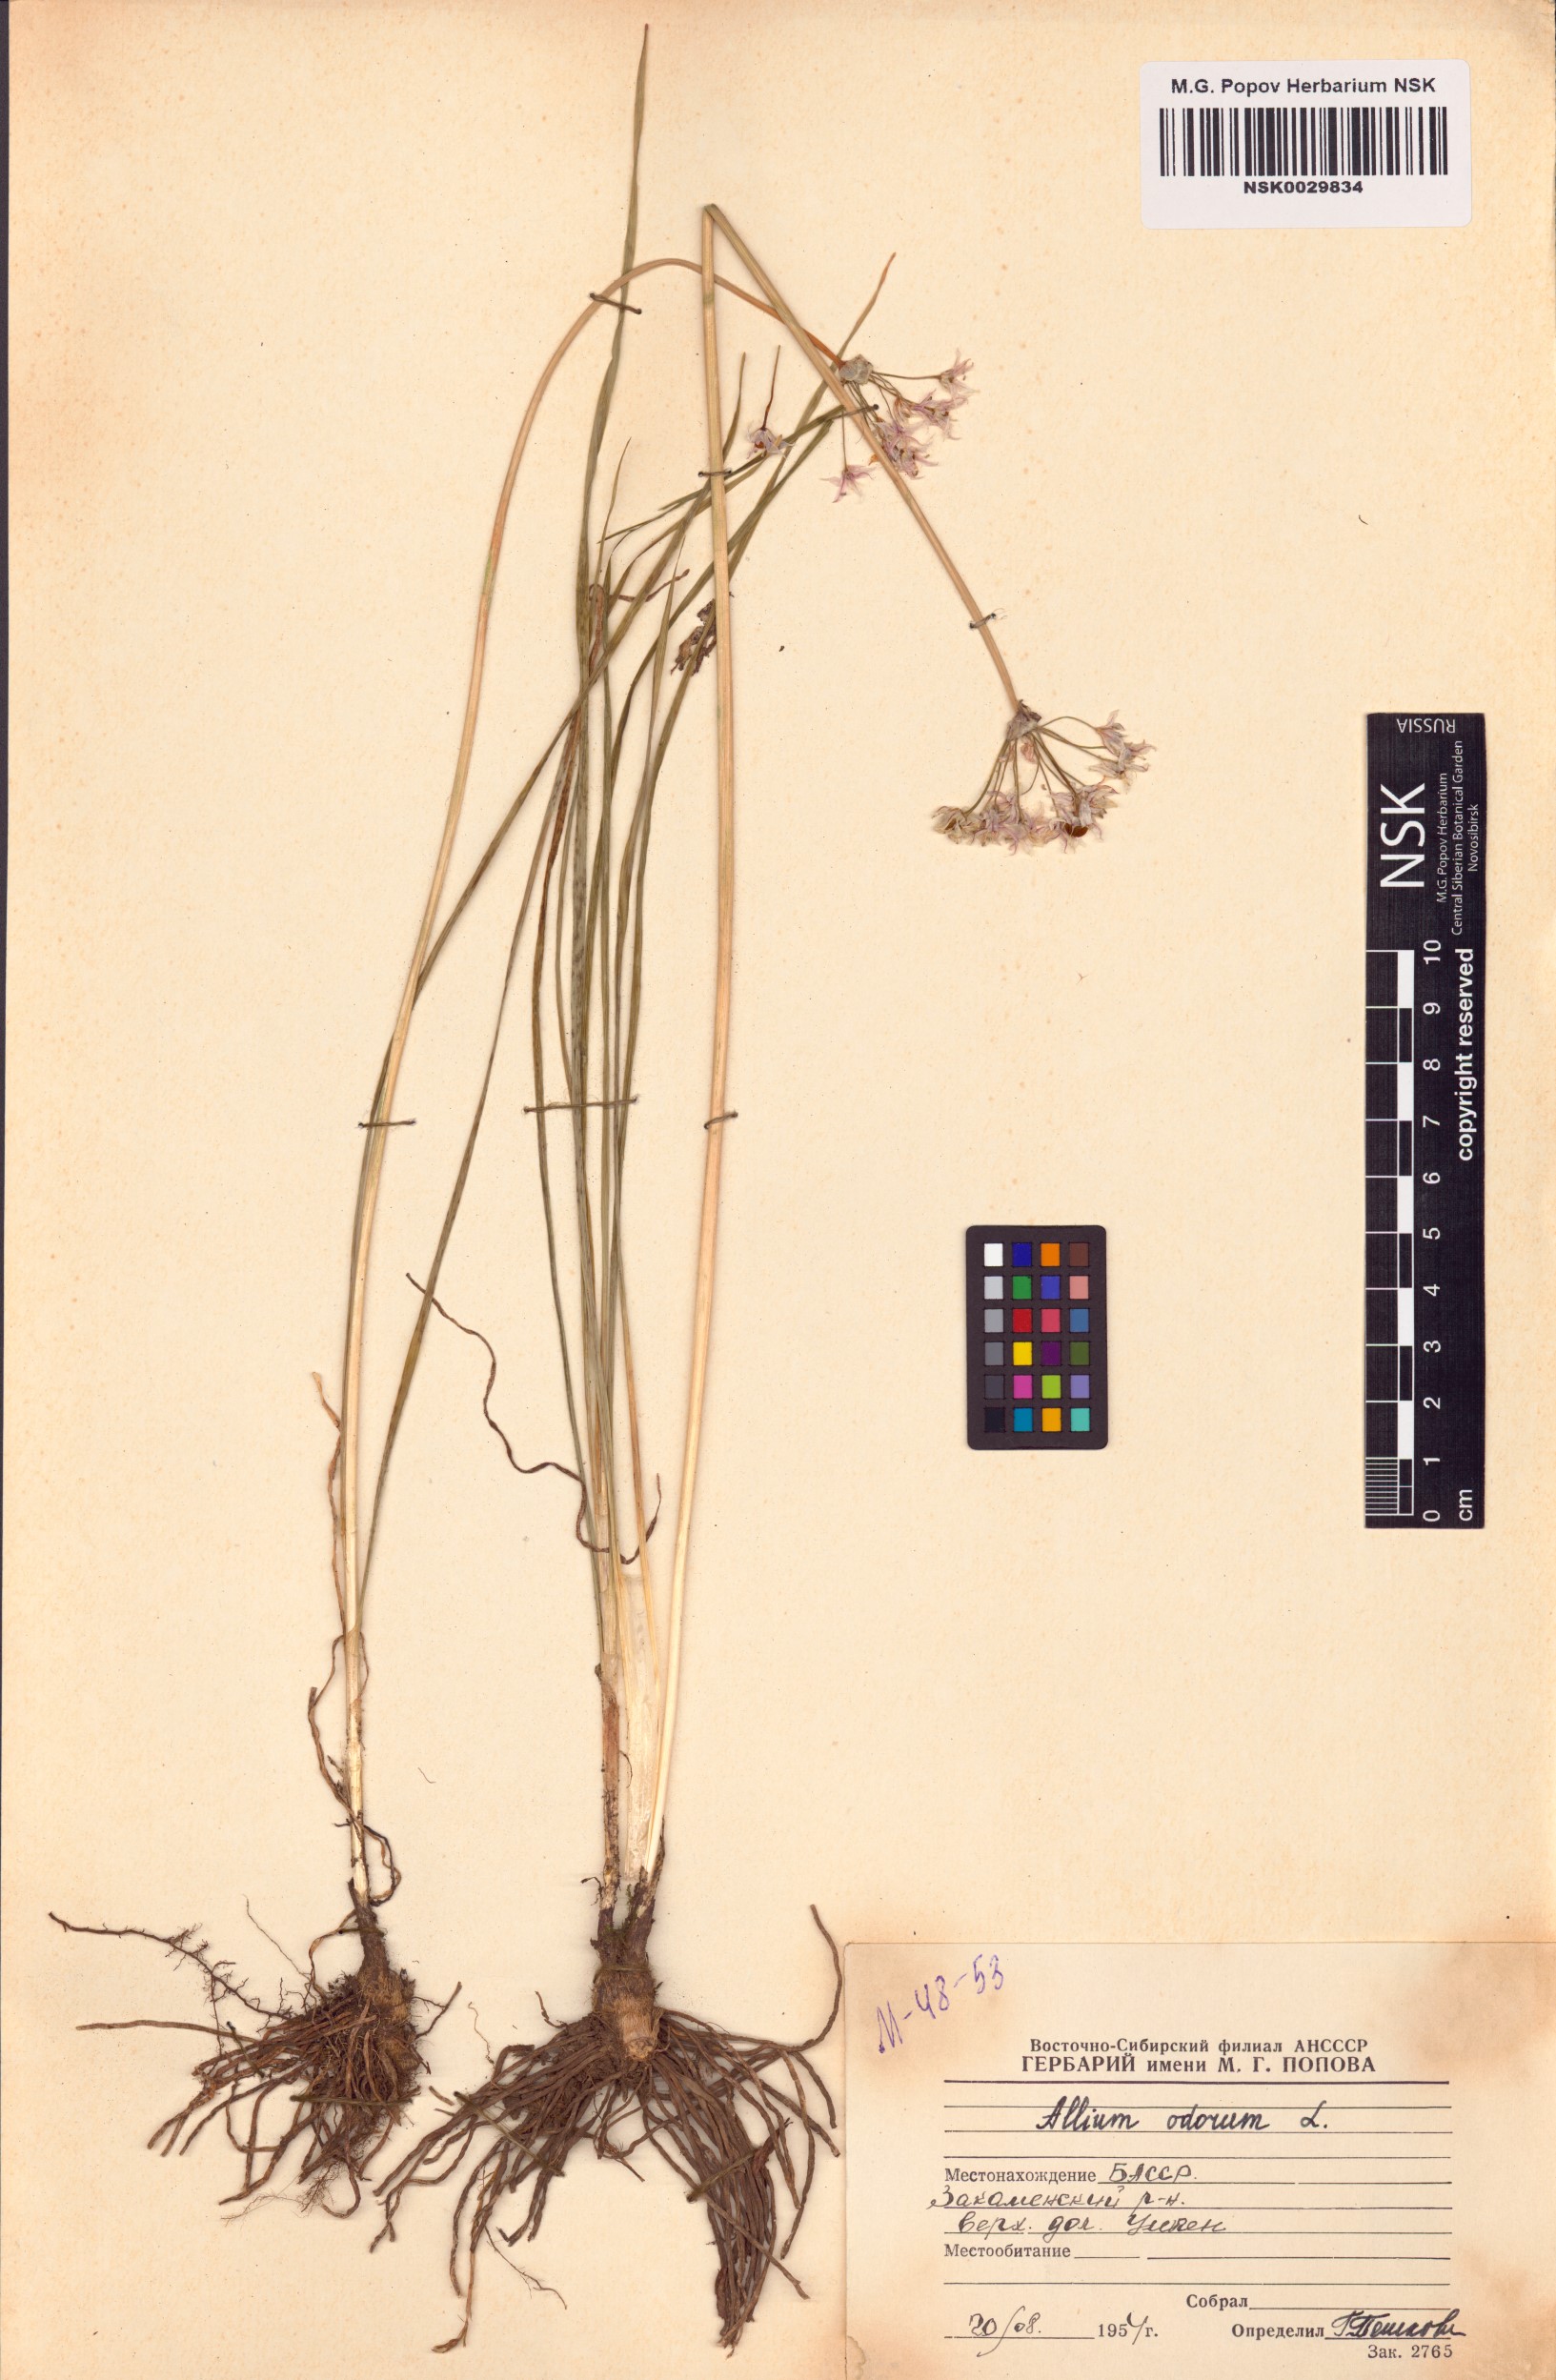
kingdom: Plantae
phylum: Tracheophyta
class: Liliopsida
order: Asparagales
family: Amaryllidaceae
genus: Allium
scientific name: Allium ramosum
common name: Fragrant garlic
